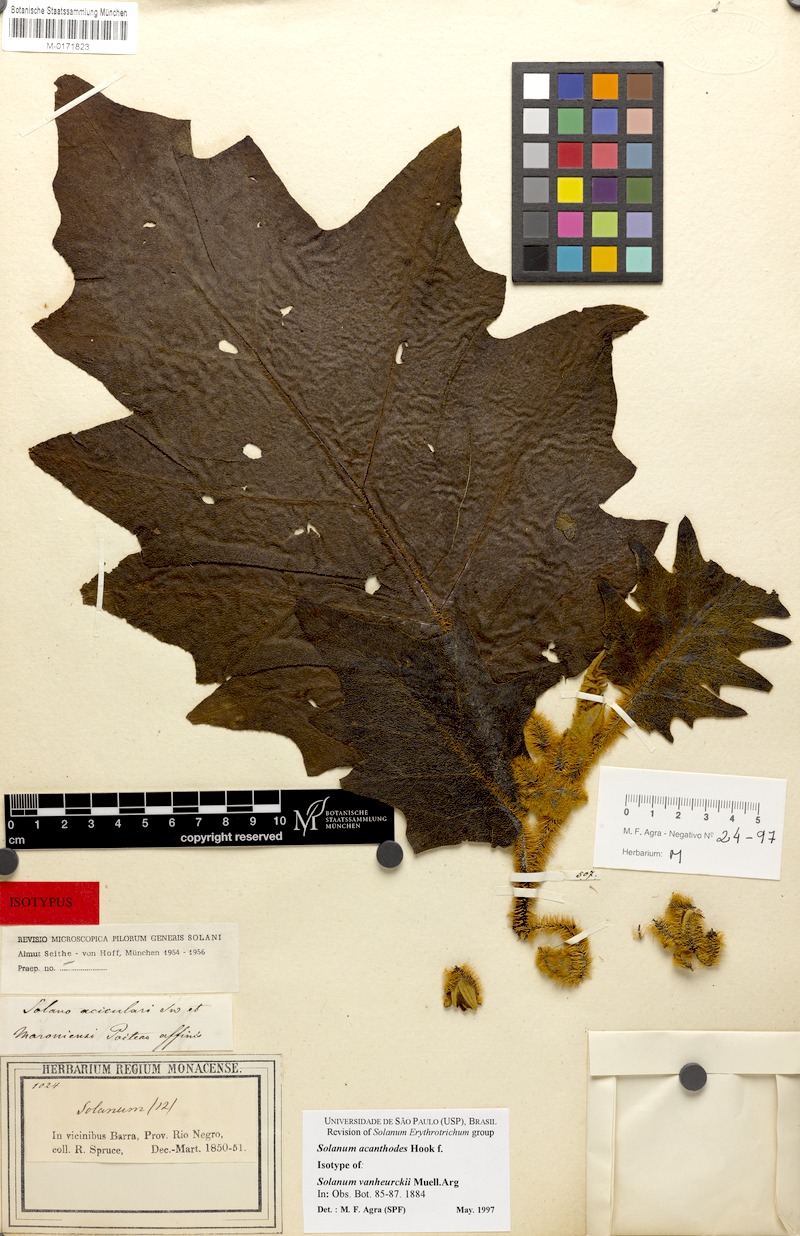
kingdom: Plantae
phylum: Tracheophyta
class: Magnoliopsida
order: Solanales
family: Solanaceae
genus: Solanum
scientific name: Solanum vanheurckii
